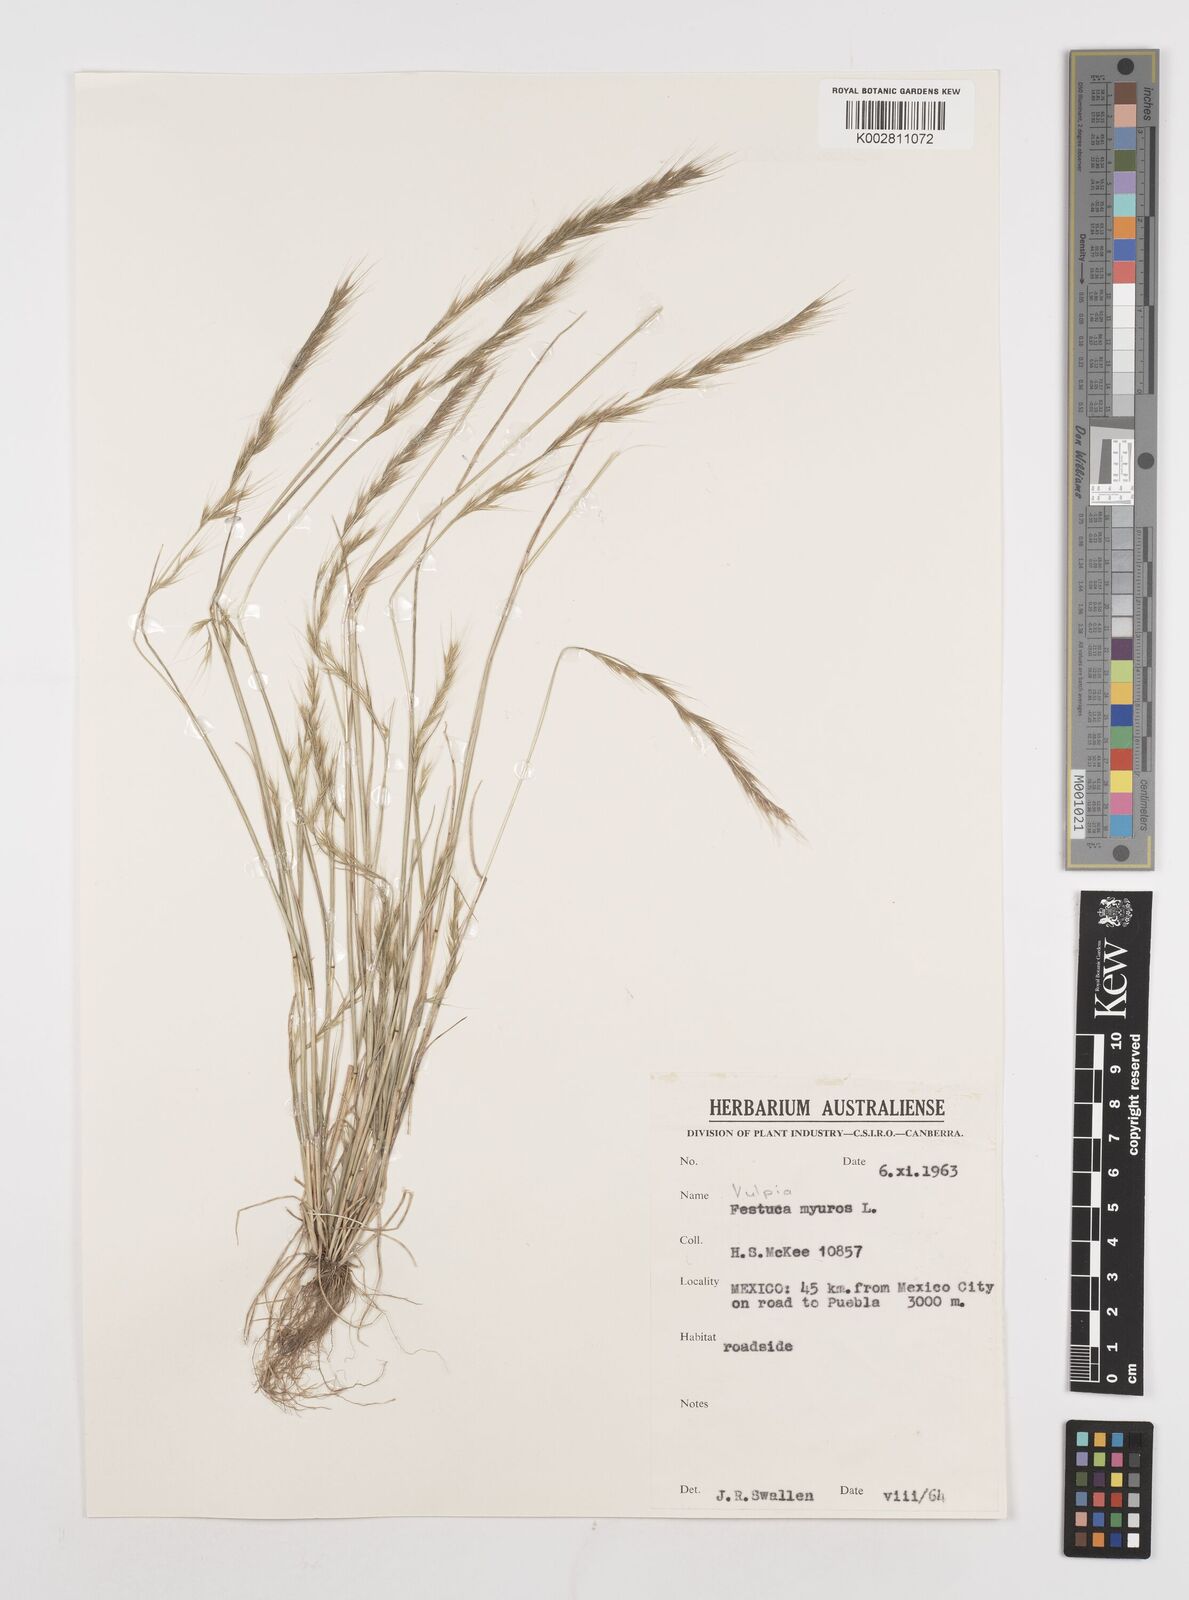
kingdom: Plantae
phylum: Tracheophyta
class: Liliopsida
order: Poales
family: Poaceae
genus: Festuca
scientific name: Festuca myuros
